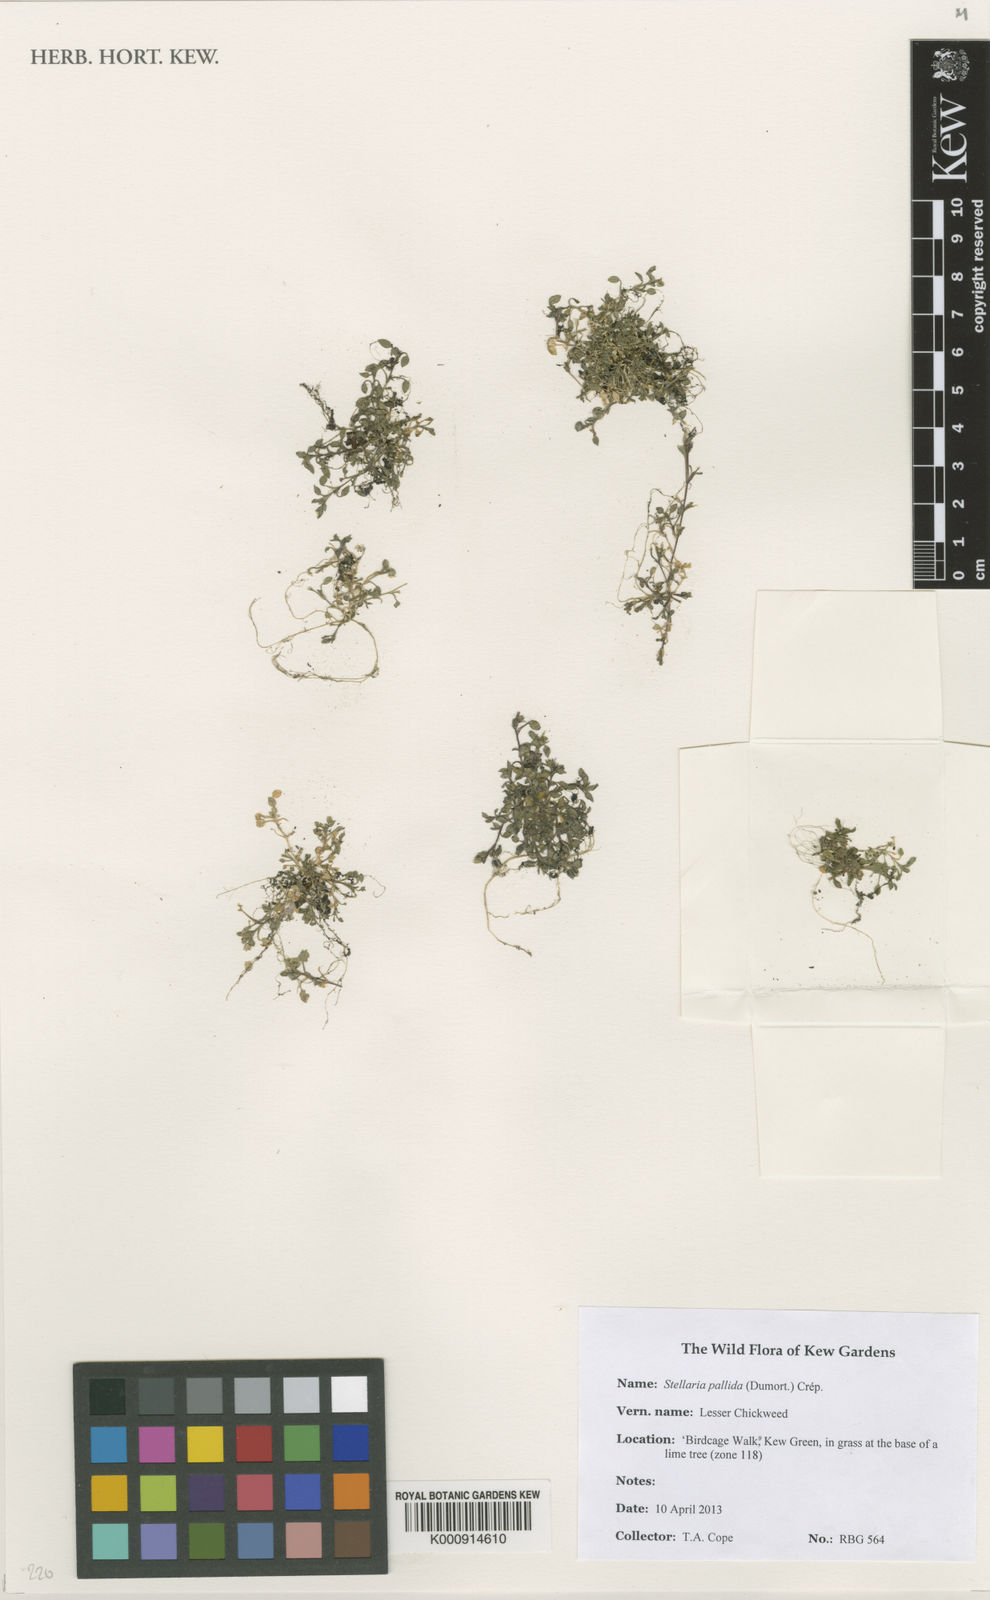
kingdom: Plantae
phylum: Tracheophyta
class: Magnoliopsida
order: Caryophyllales
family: Caryophyllaceae
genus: Stellaria
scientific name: Stellaria
